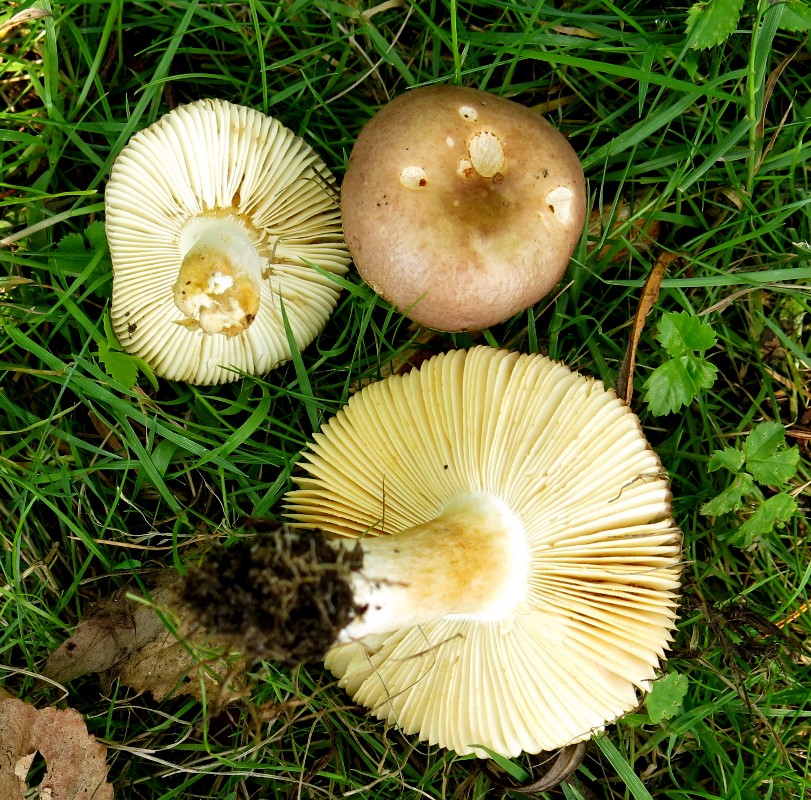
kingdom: Fungi
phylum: Basidiomycota
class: Agaricomycetes
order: Russulales
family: Russulaceae
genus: Russula
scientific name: Russula puellaris
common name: gulstokket skørhat
